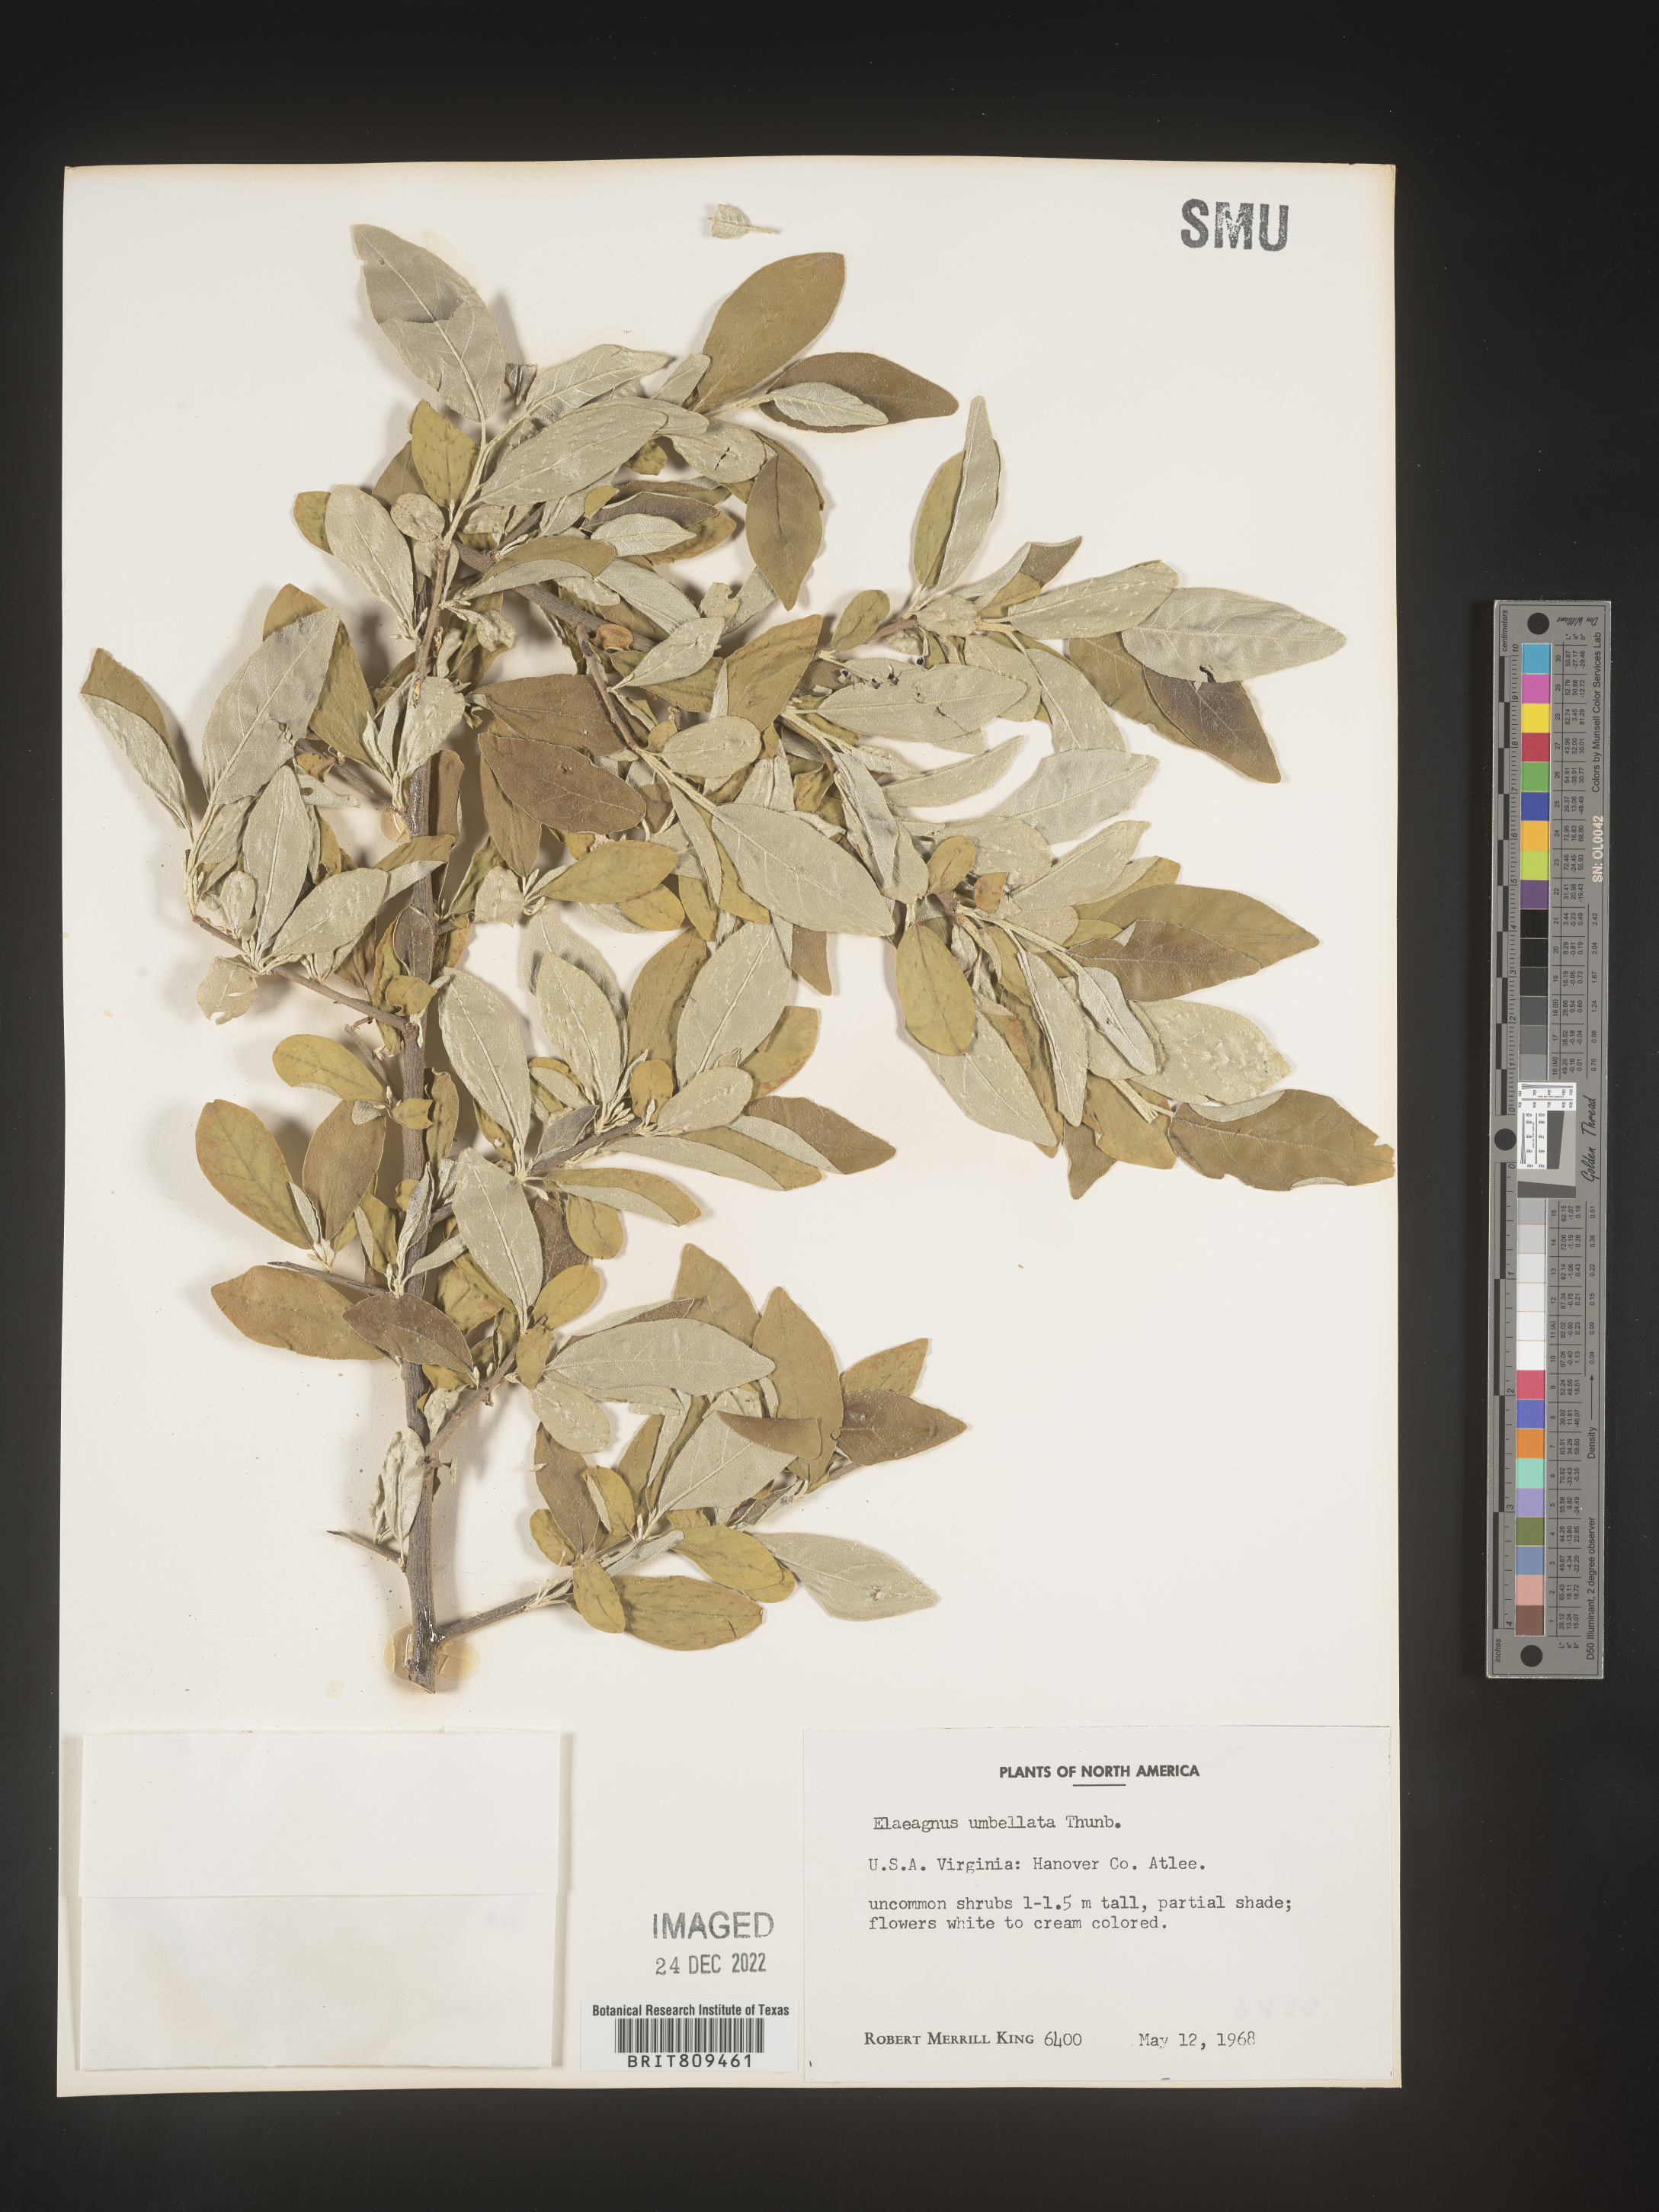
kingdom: Plantae
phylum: Tracheophyta
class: Magnoliopsida
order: Rosales
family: Elaeagnaceae
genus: Elaeagnus
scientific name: Elaeagnus
